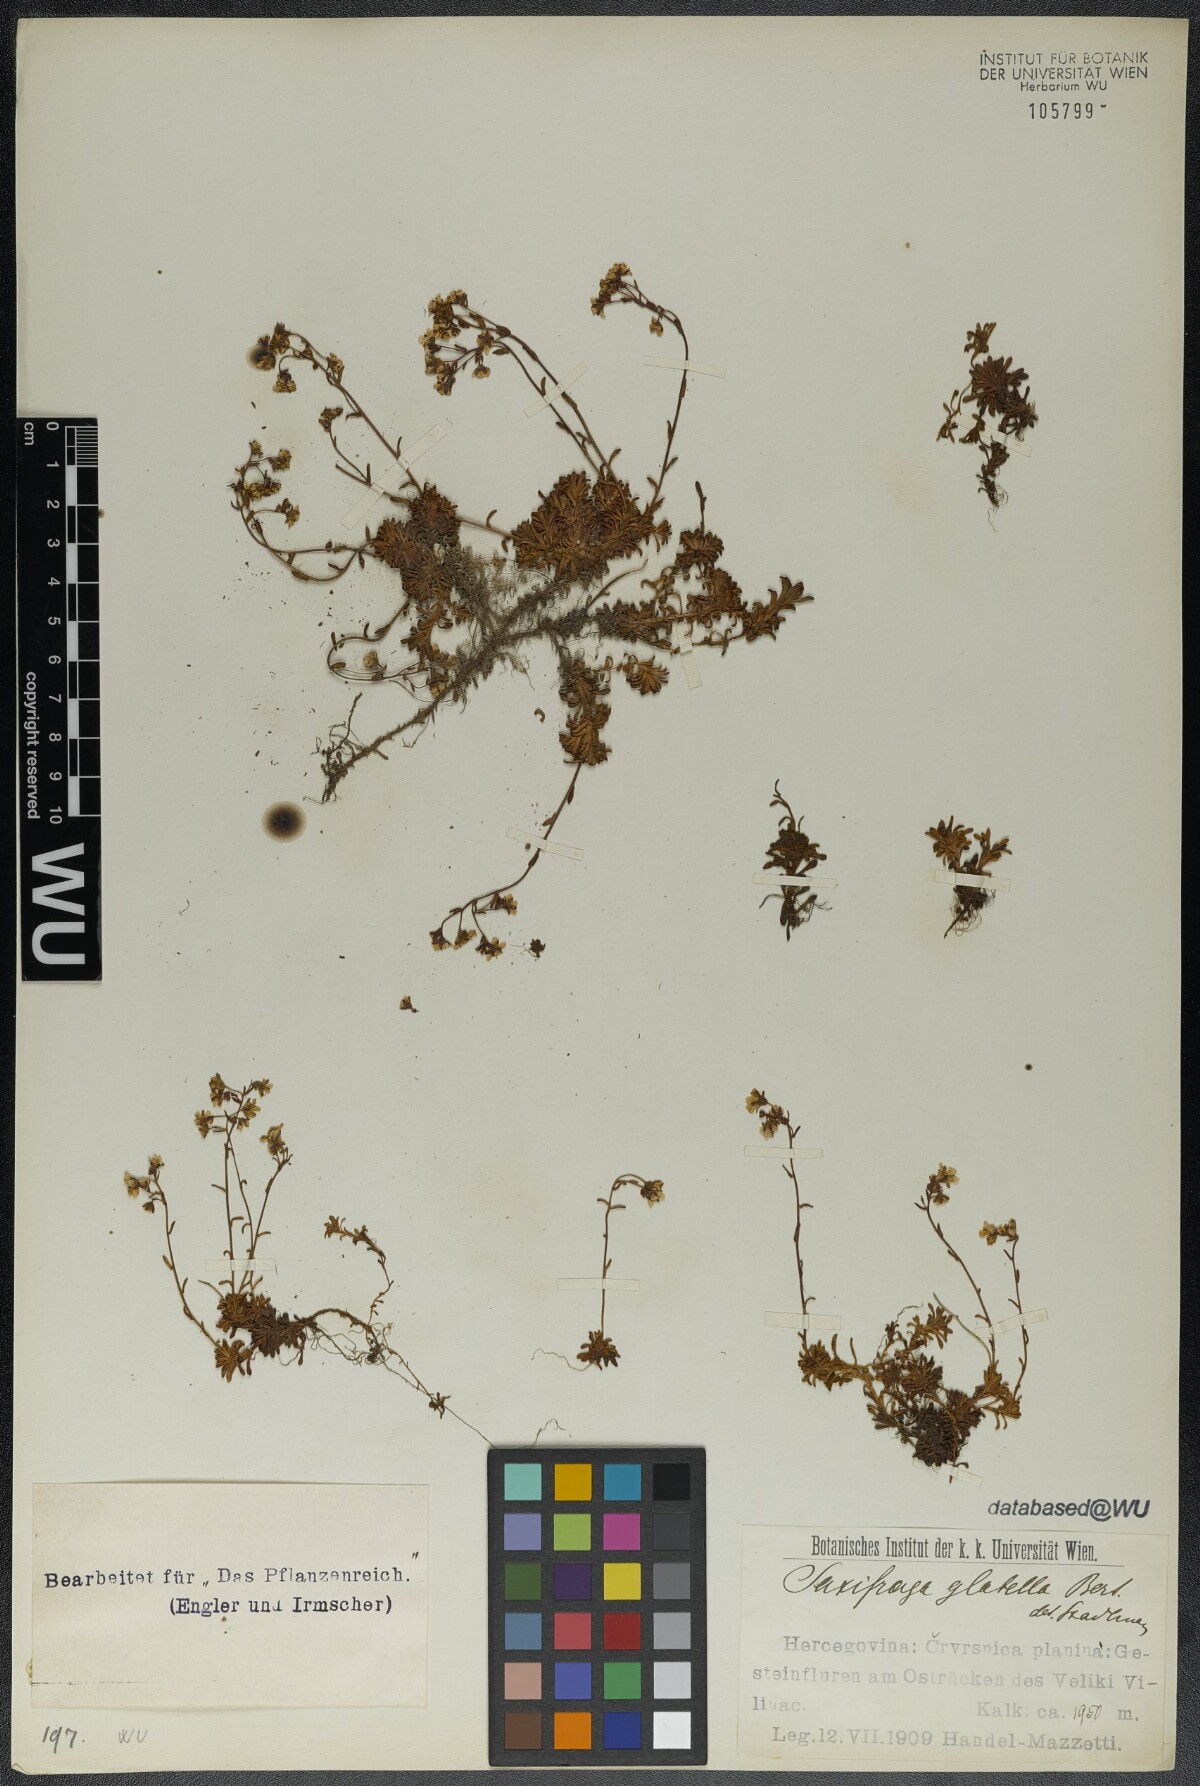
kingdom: Plantae
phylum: Tracheophyta
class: Magnoliopsida
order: Saxifragales
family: Saxifragaceae
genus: Saxifraga
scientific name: Saxifraga glabella
